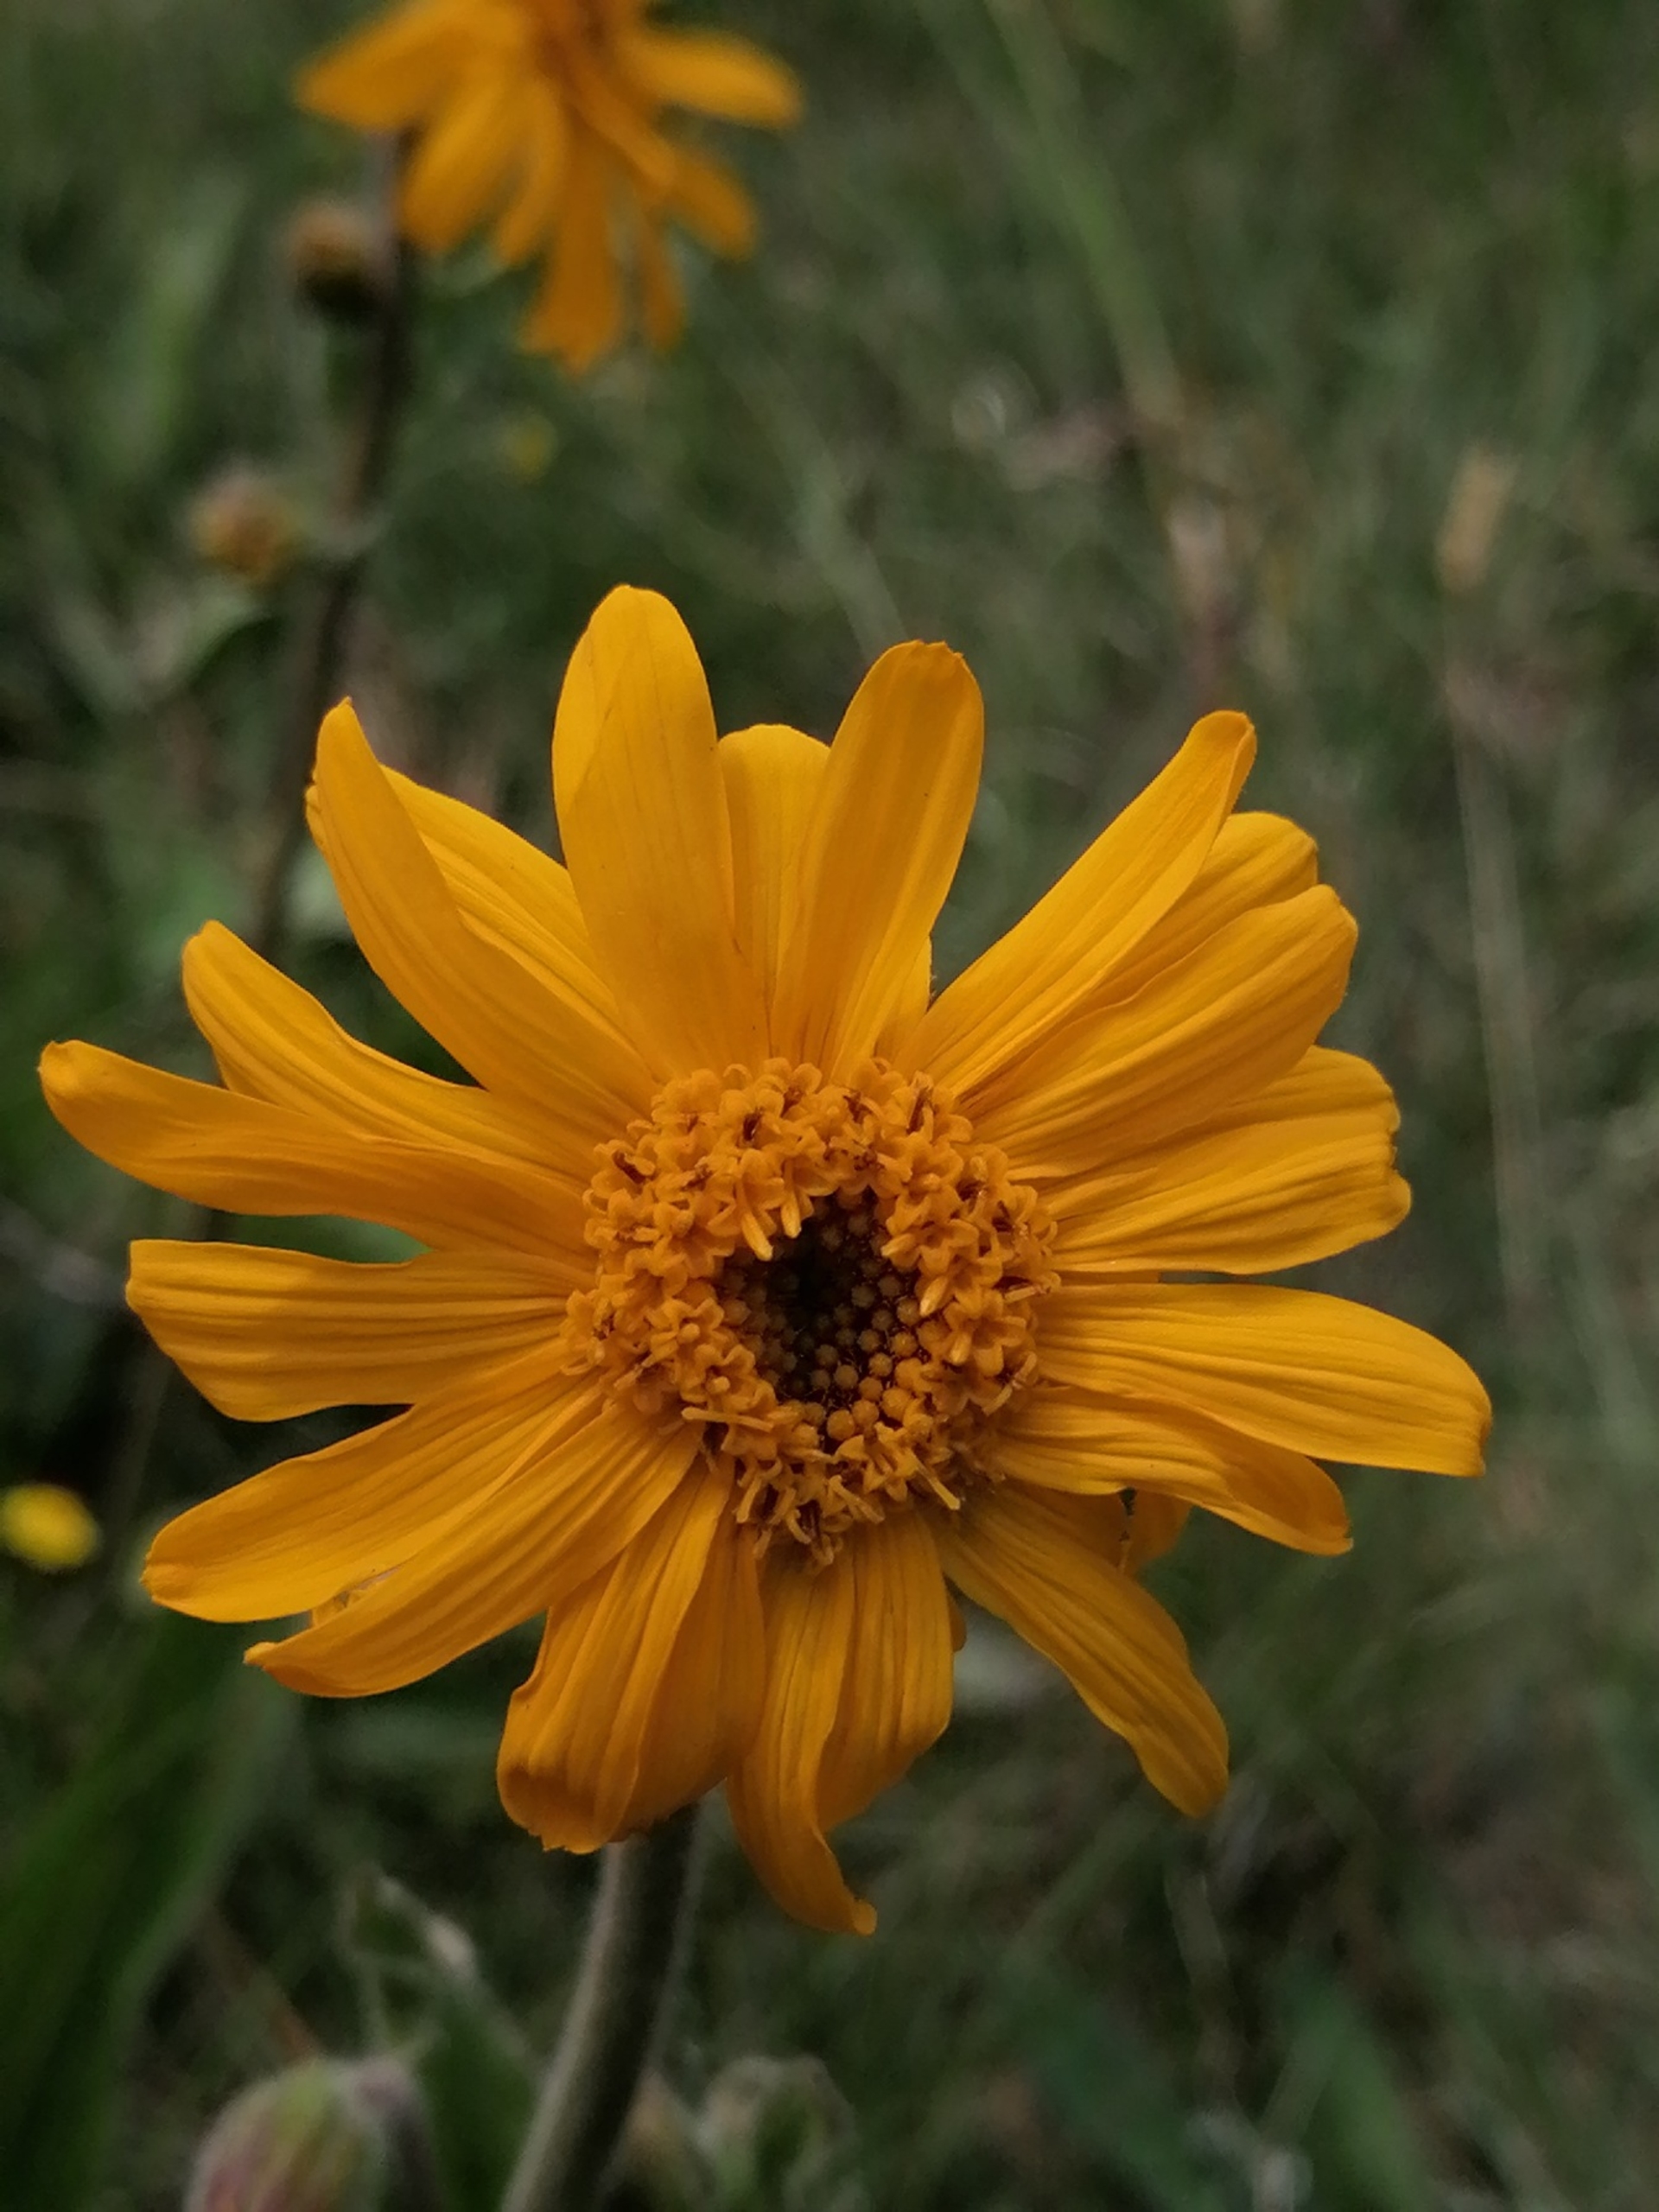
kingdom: Plantae
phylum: Tracheophyta
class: Magnoliopsida
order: Asterales
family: Asteraceae
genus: Arnica
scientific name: Arnica montana
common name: Guldblomme
